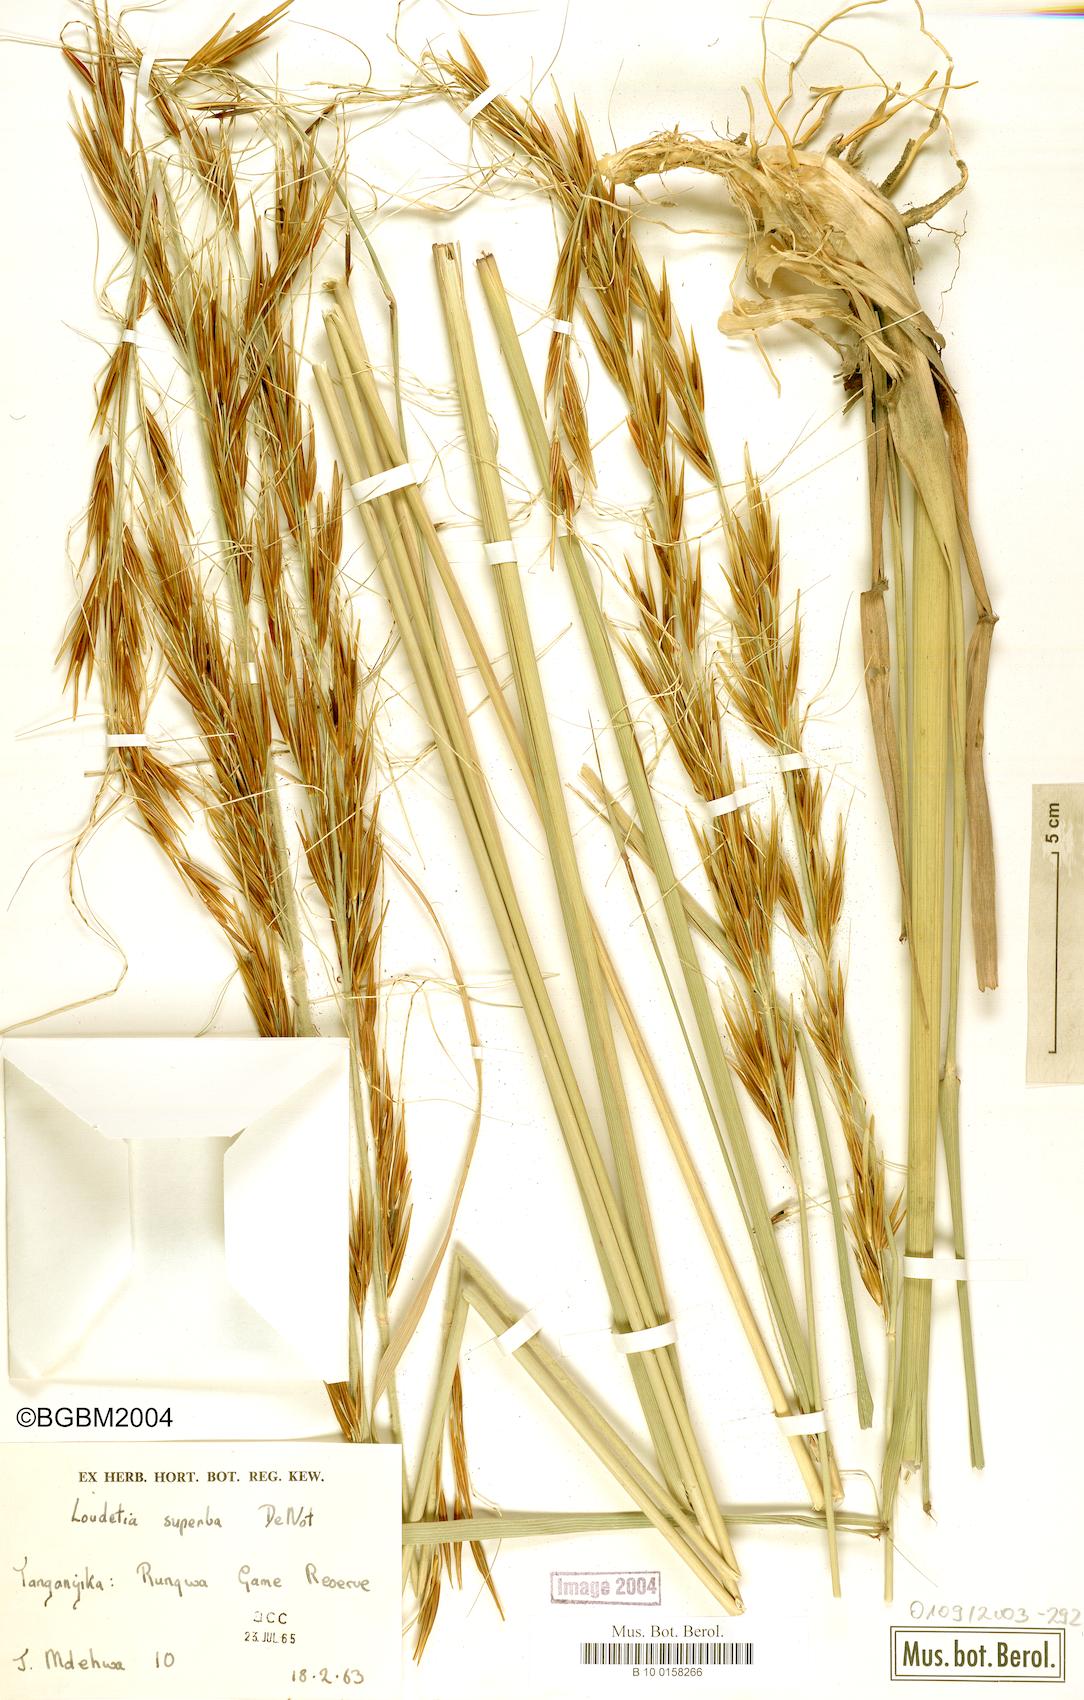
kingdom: Plantae
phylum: Tracheophyta
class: Liliopsida
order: Poales
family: Poaceae
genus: Tristachya
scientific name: Tristachya superba
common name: Giant trident grass
